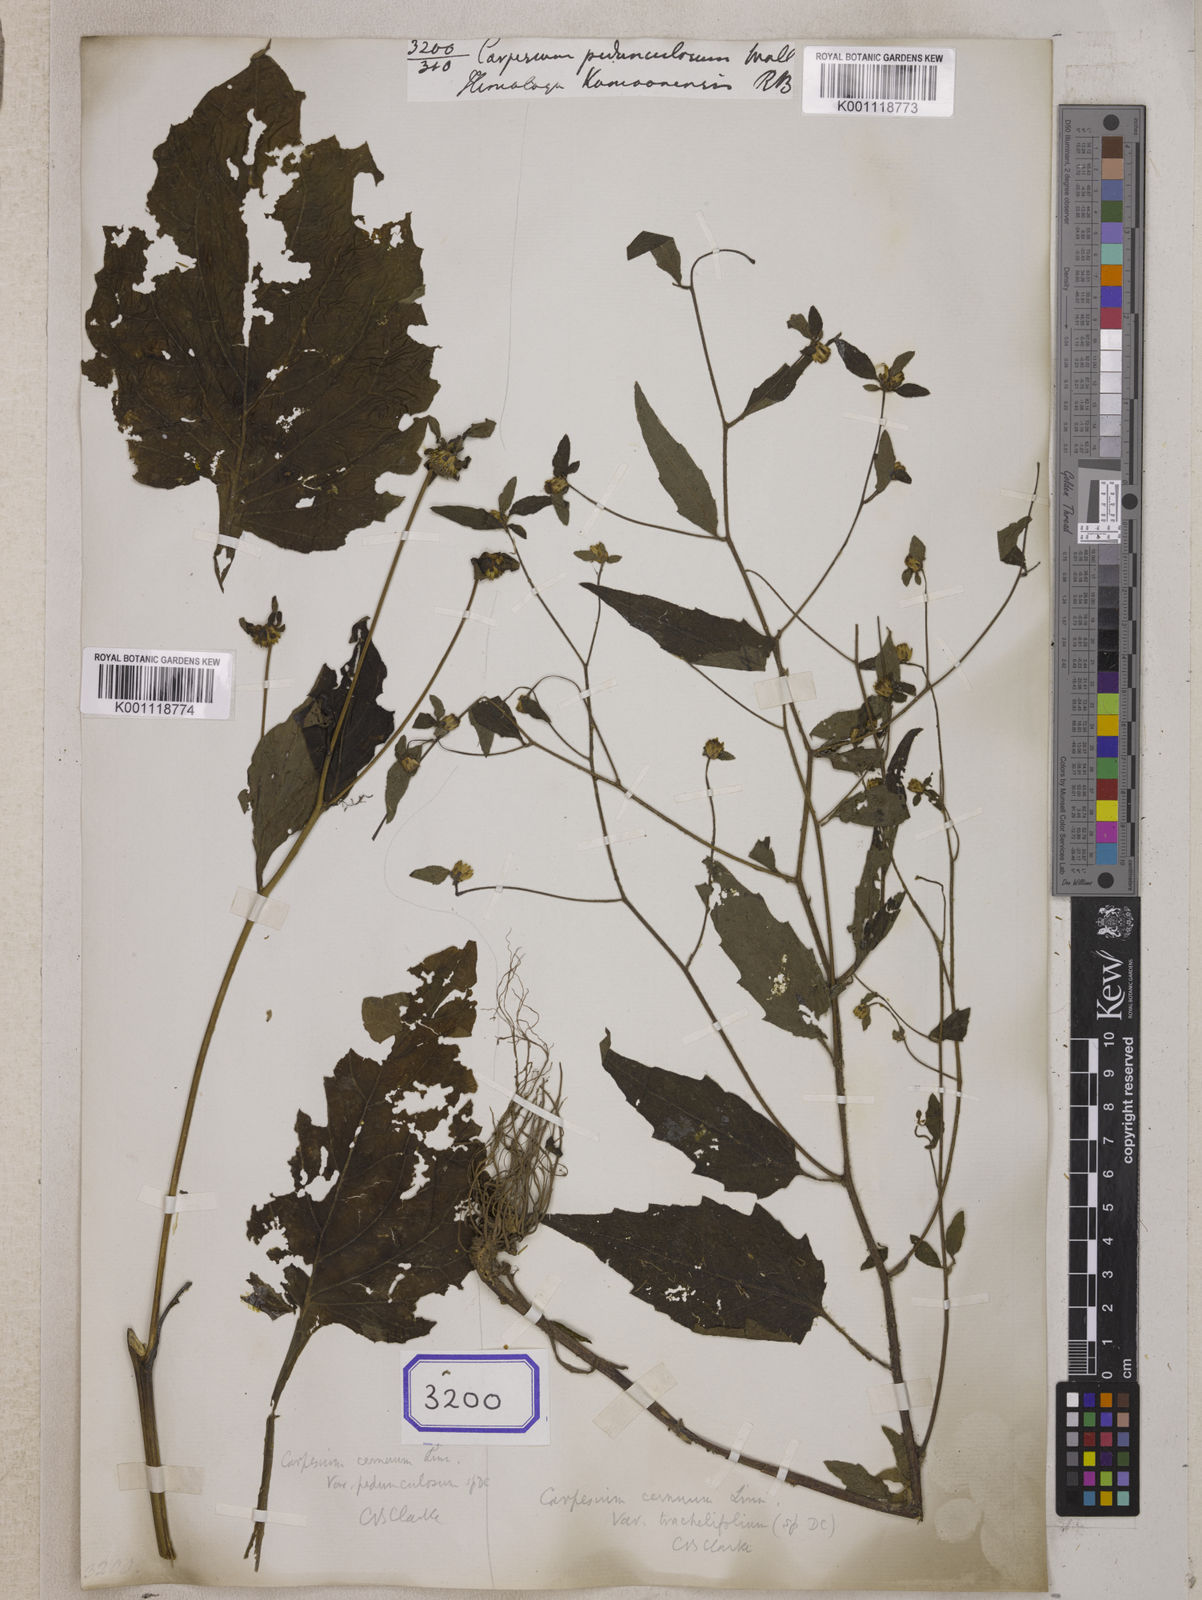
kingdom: Plantae
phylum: Tracheophyta
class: Magnoliopsida
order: Asterales
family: Asteraceae
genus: Carpesium
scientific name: Carpesium pedunculosum
